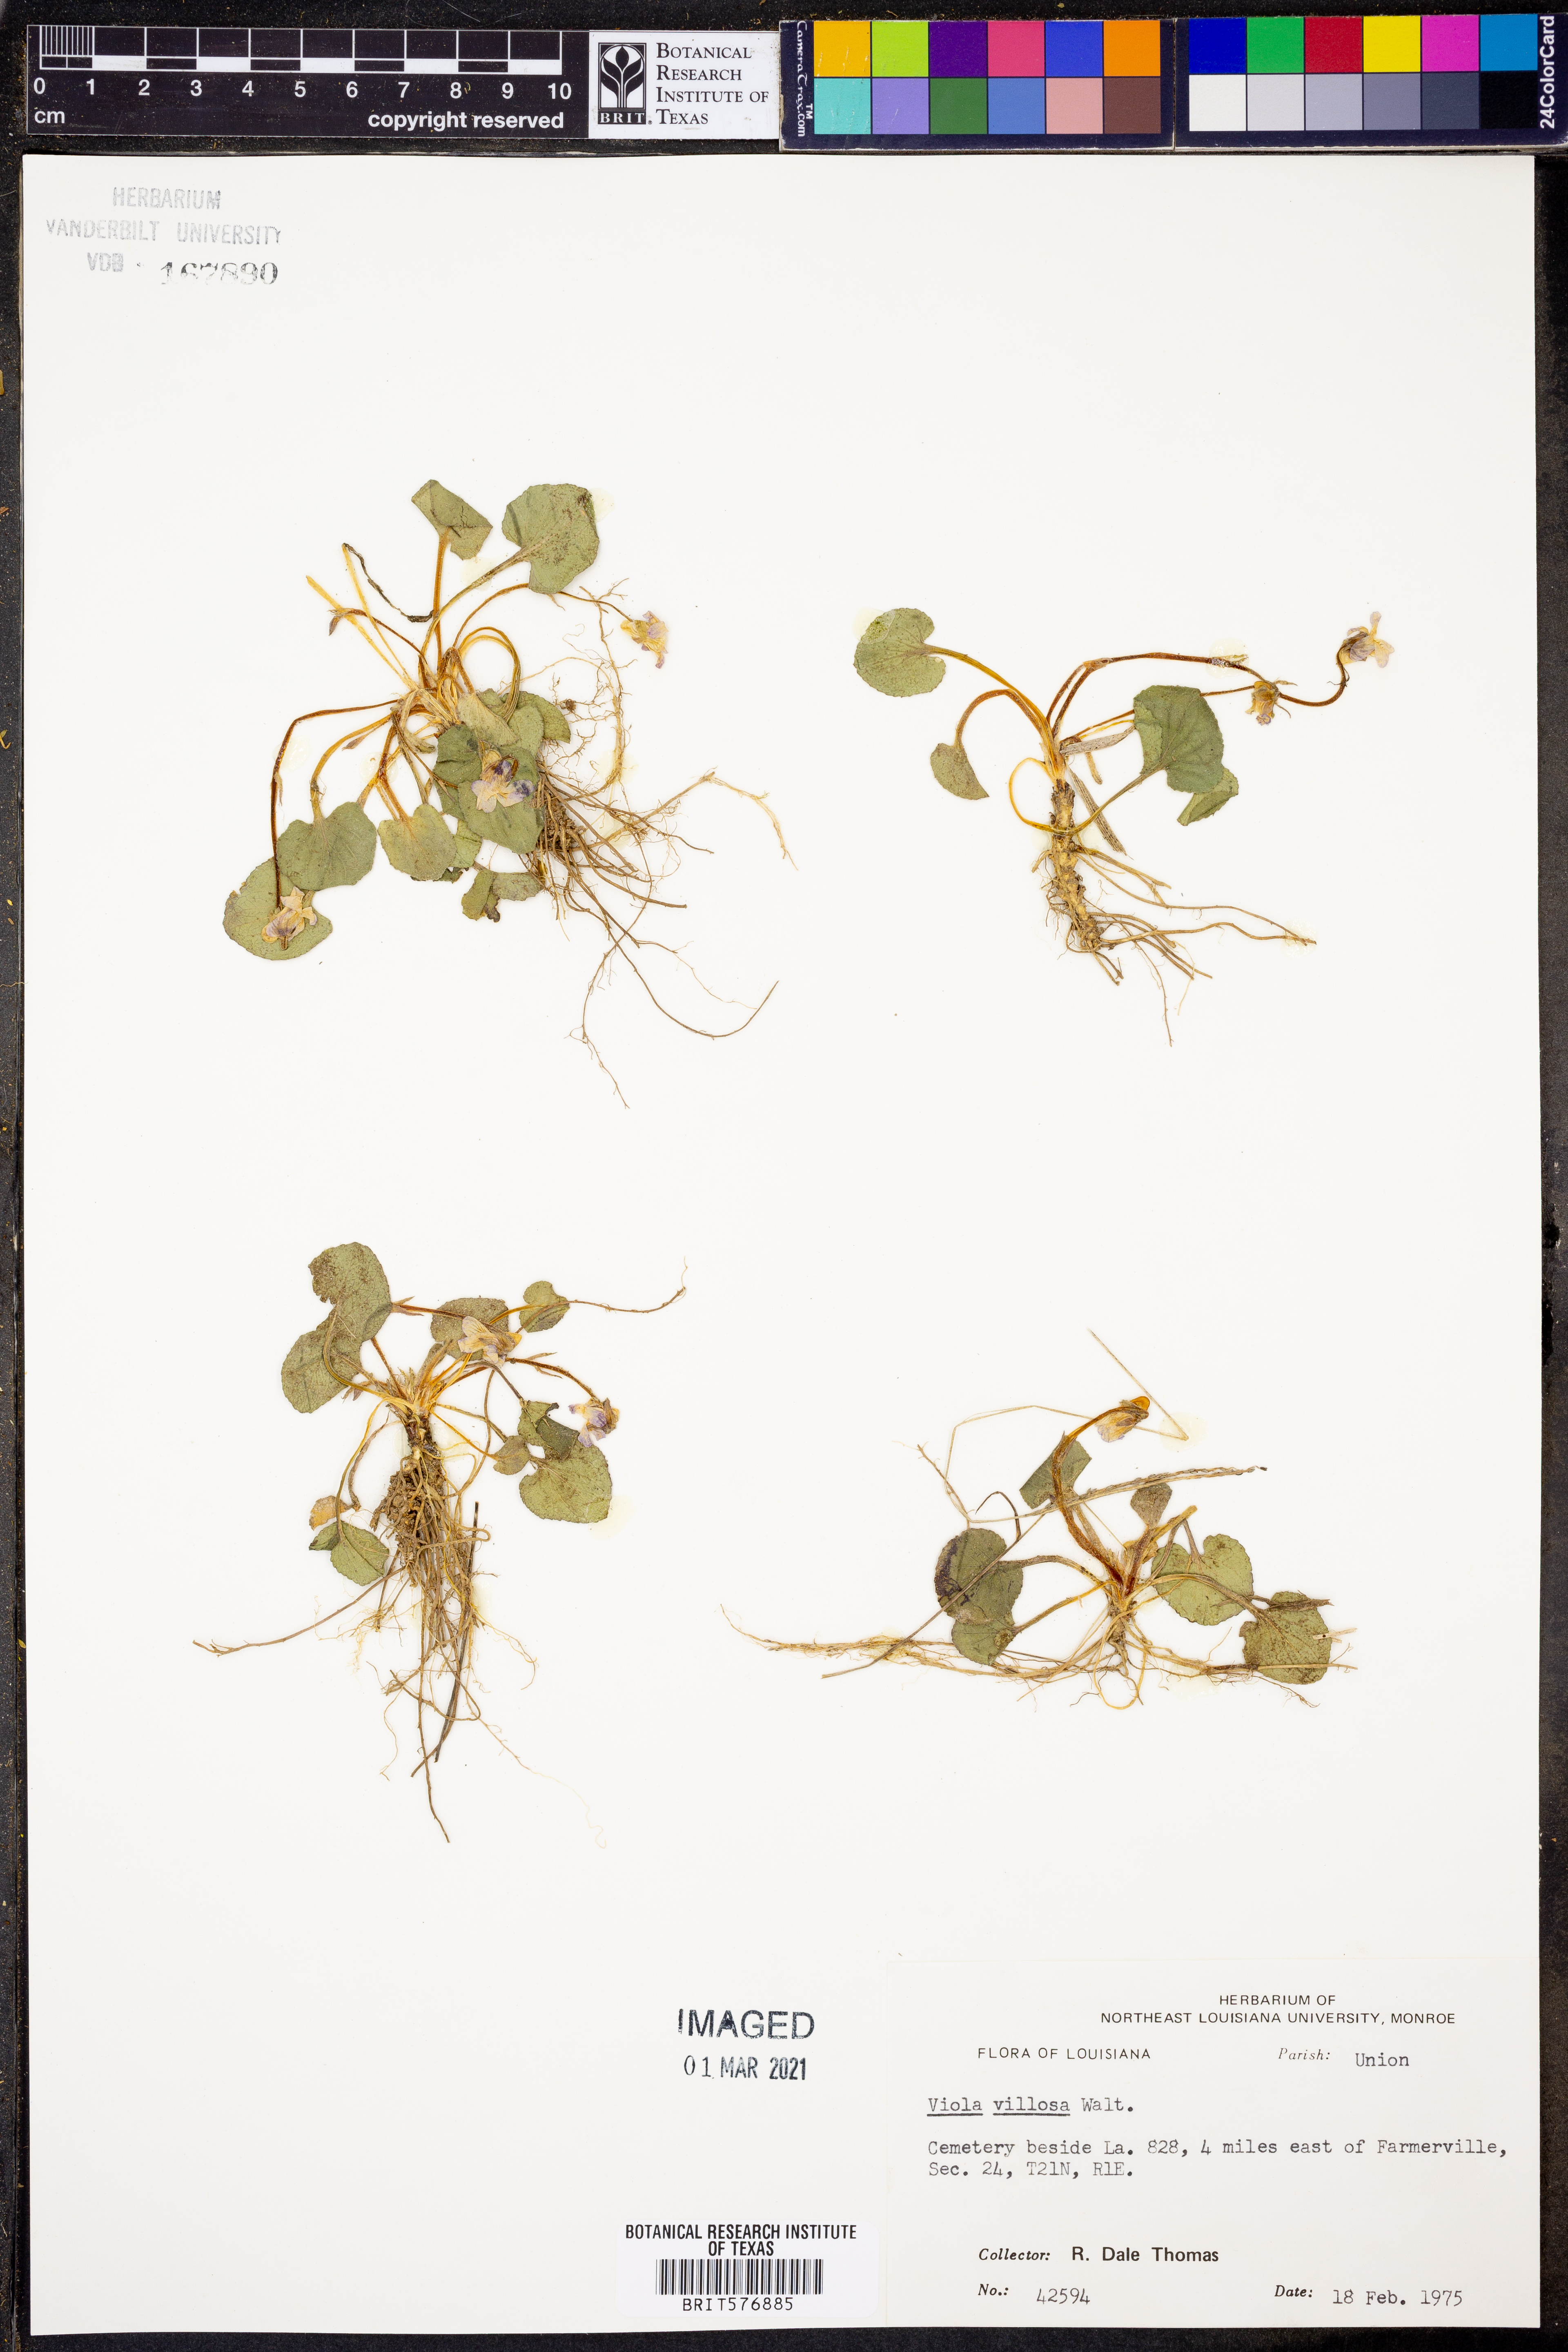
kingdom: Plantae
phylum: Tracheophyta
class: Magnoliopsida
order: Malpighiales
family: Violaceae
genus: Viola
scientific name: Viola villosa
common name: Carolina violet
